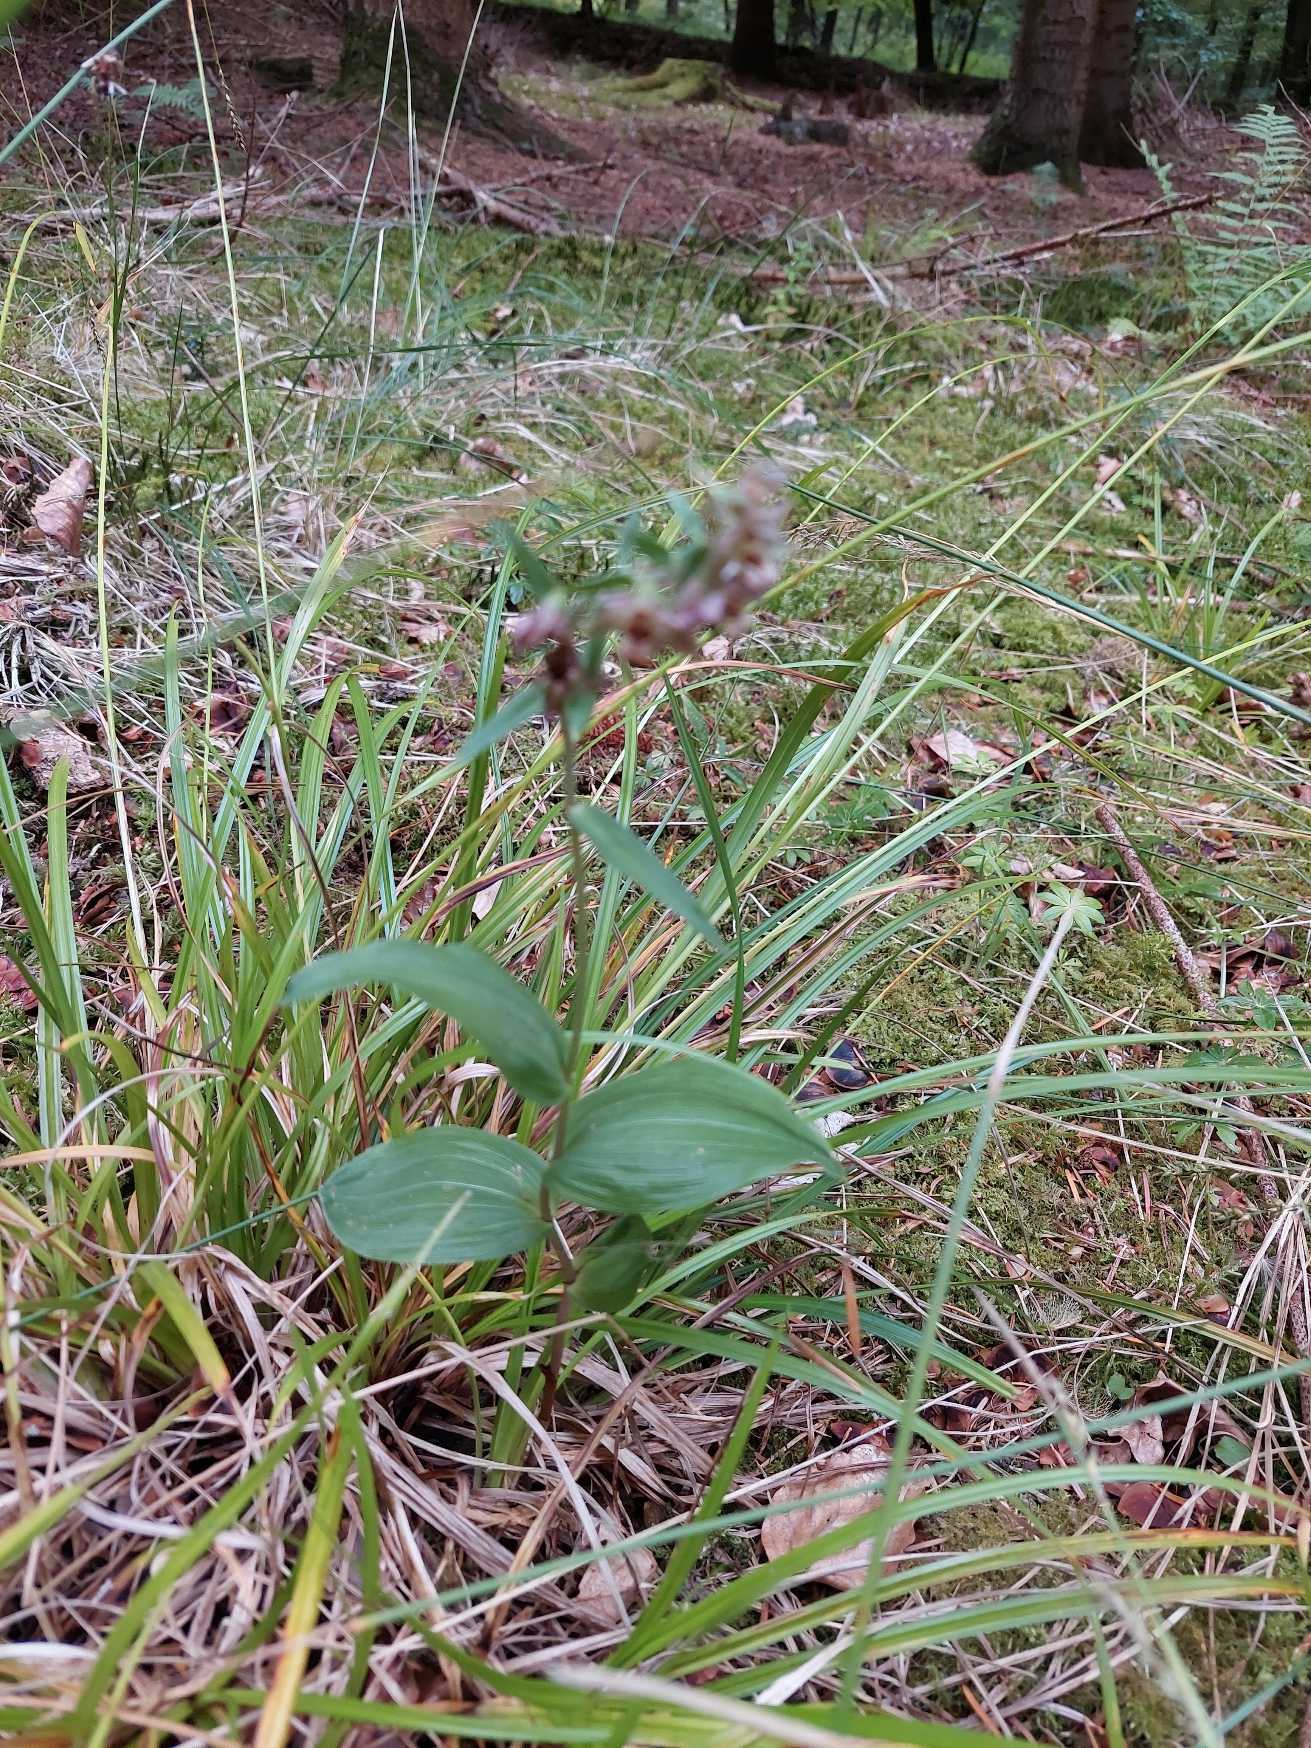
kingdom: Plantae
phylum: Tracheophyta
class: Liliopsida
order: Asparagales
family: Orchidaceae
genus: Epipactis
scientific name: Epipactis helleborine
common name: Skov-hullæbe
